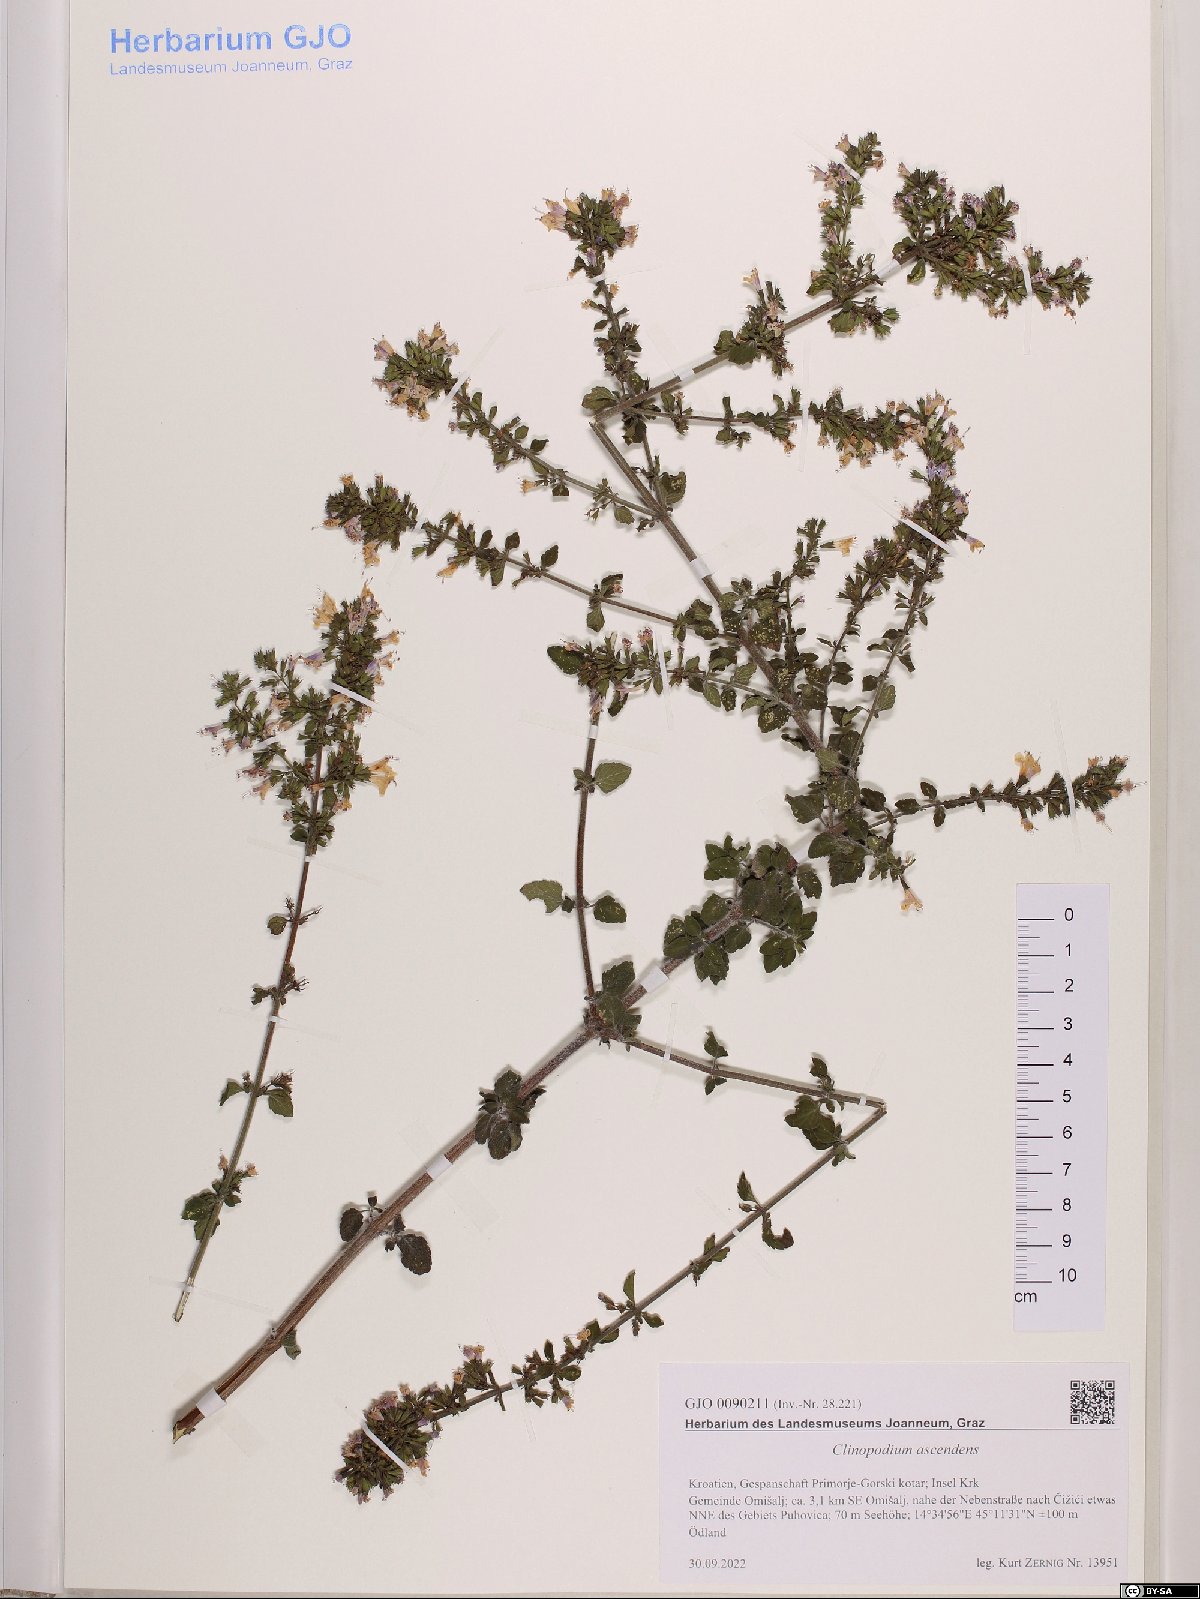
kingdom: Plantae
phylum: Tracheophyta
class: Magnoliopsida
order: Lamiales
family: Lamiaceae
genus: Clinopodium
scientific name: Clinopodium menthifolium
